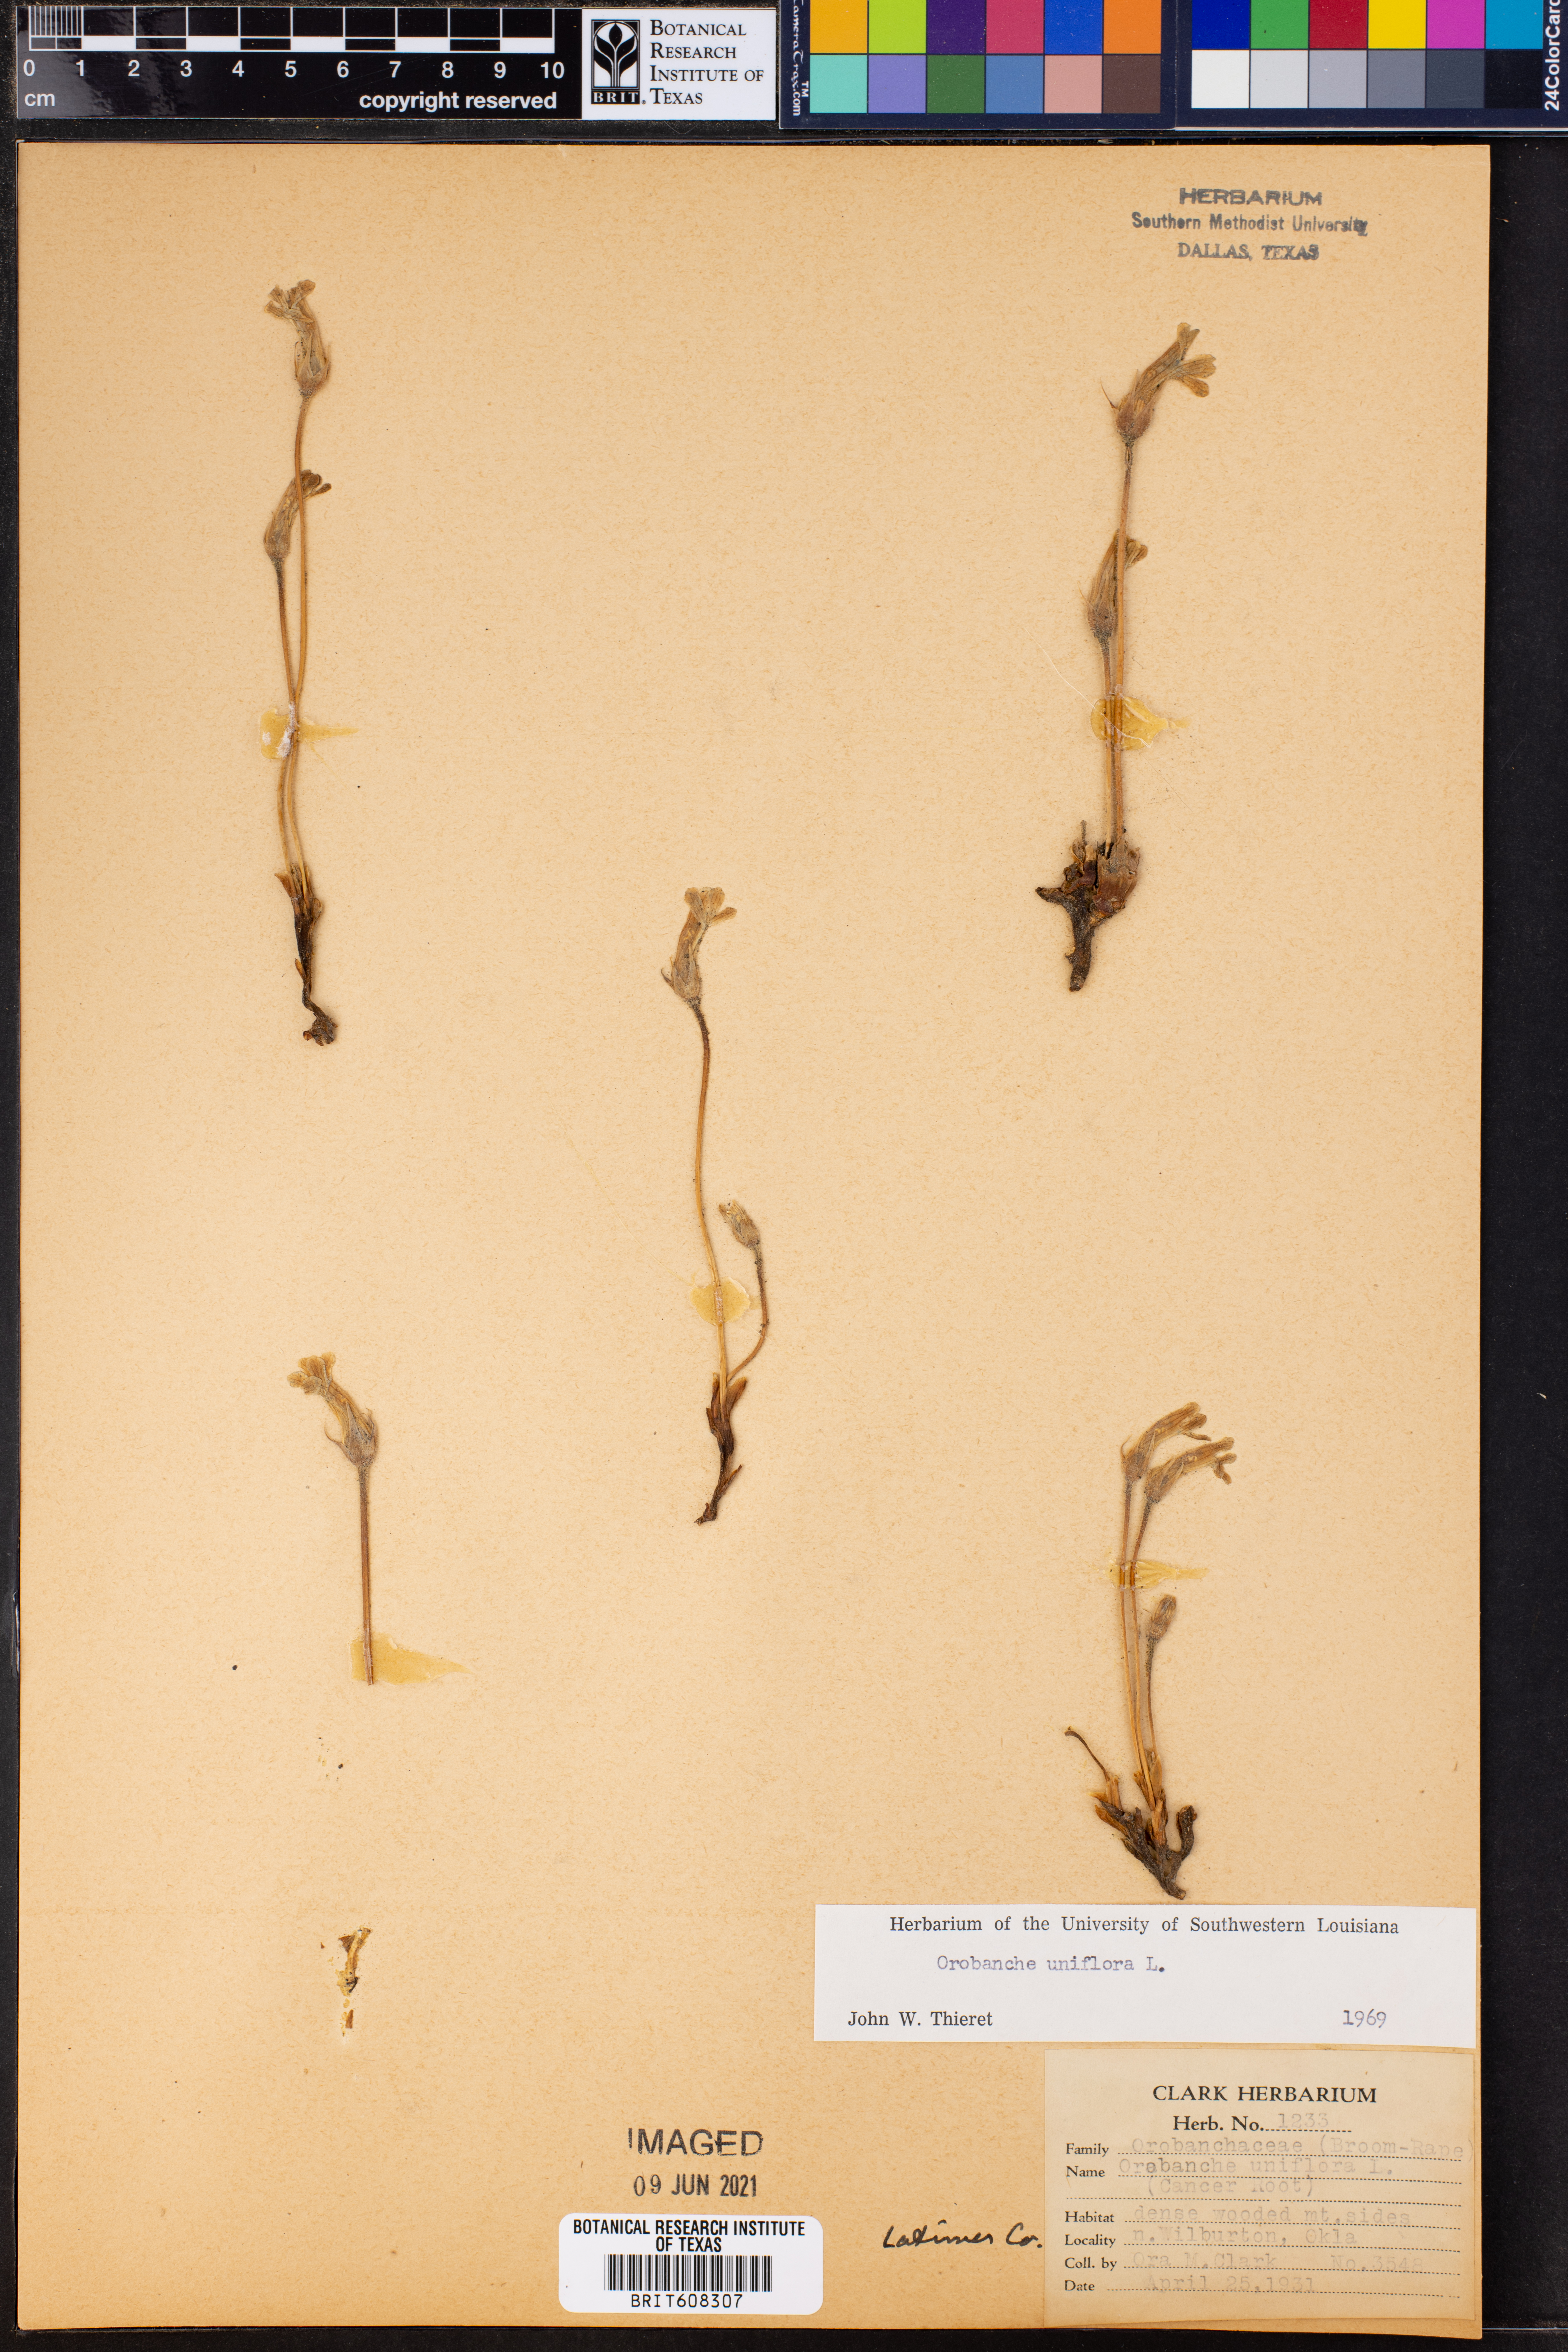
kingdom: Plantae
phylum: Tracheophyta
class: Magnoliopsida
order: Lamiales
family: Orobanchaceae
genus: Aphyllon
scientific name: Aphyllon uniflorum
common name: One-flowered broomrape
